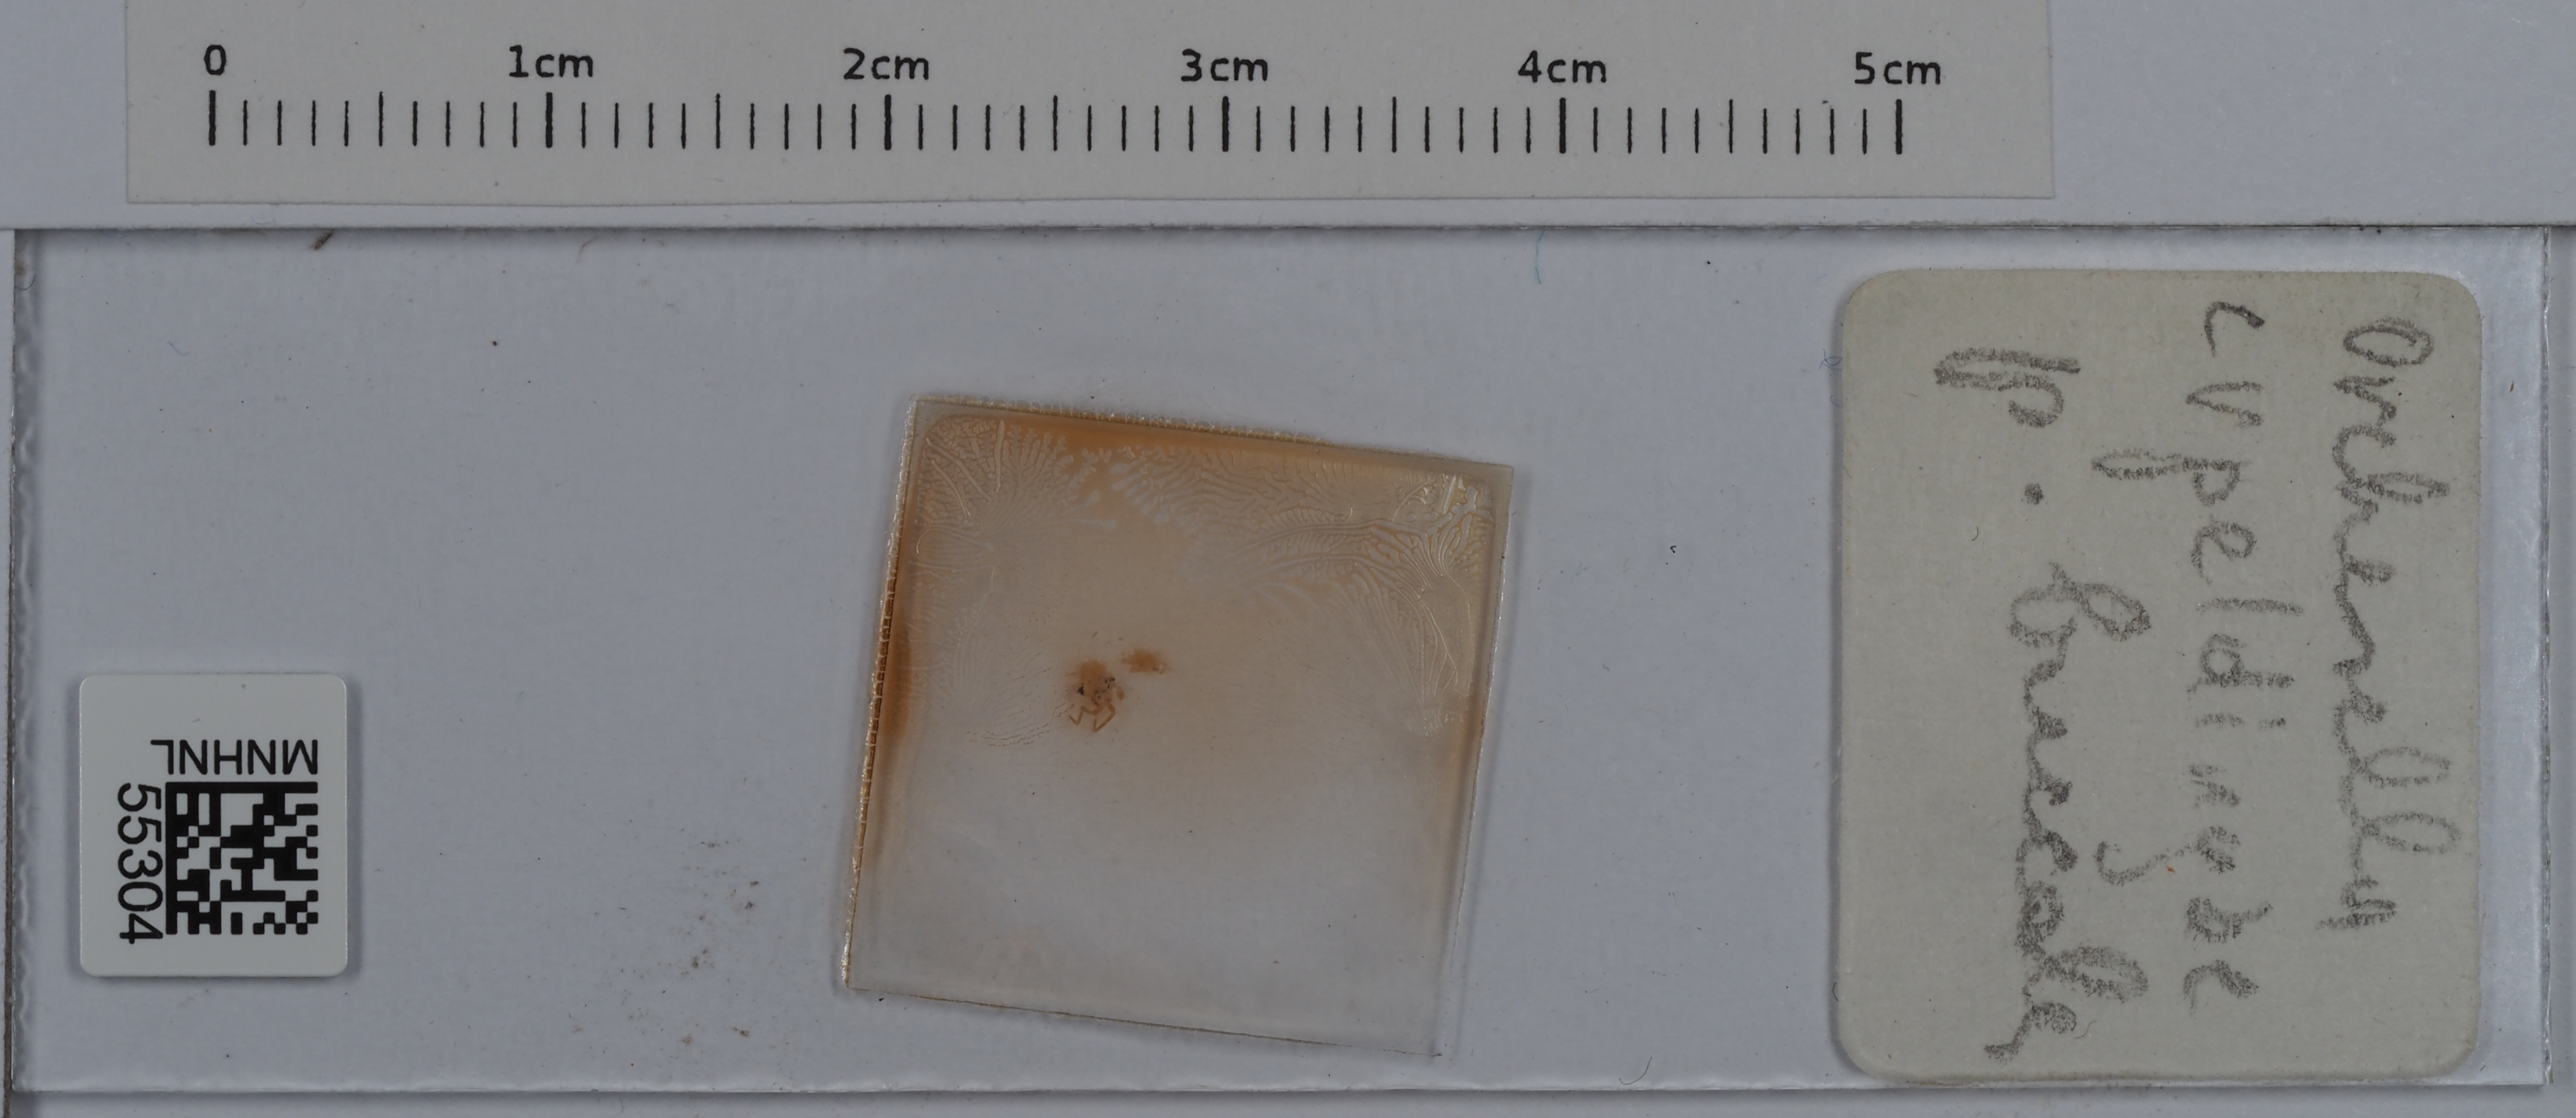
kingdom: Animalia
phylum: Arthropoda
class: Collembola
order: Entomobryomorpha
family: Orchesellidae
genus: Orchesella
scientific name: Orchesella erpeldingae
